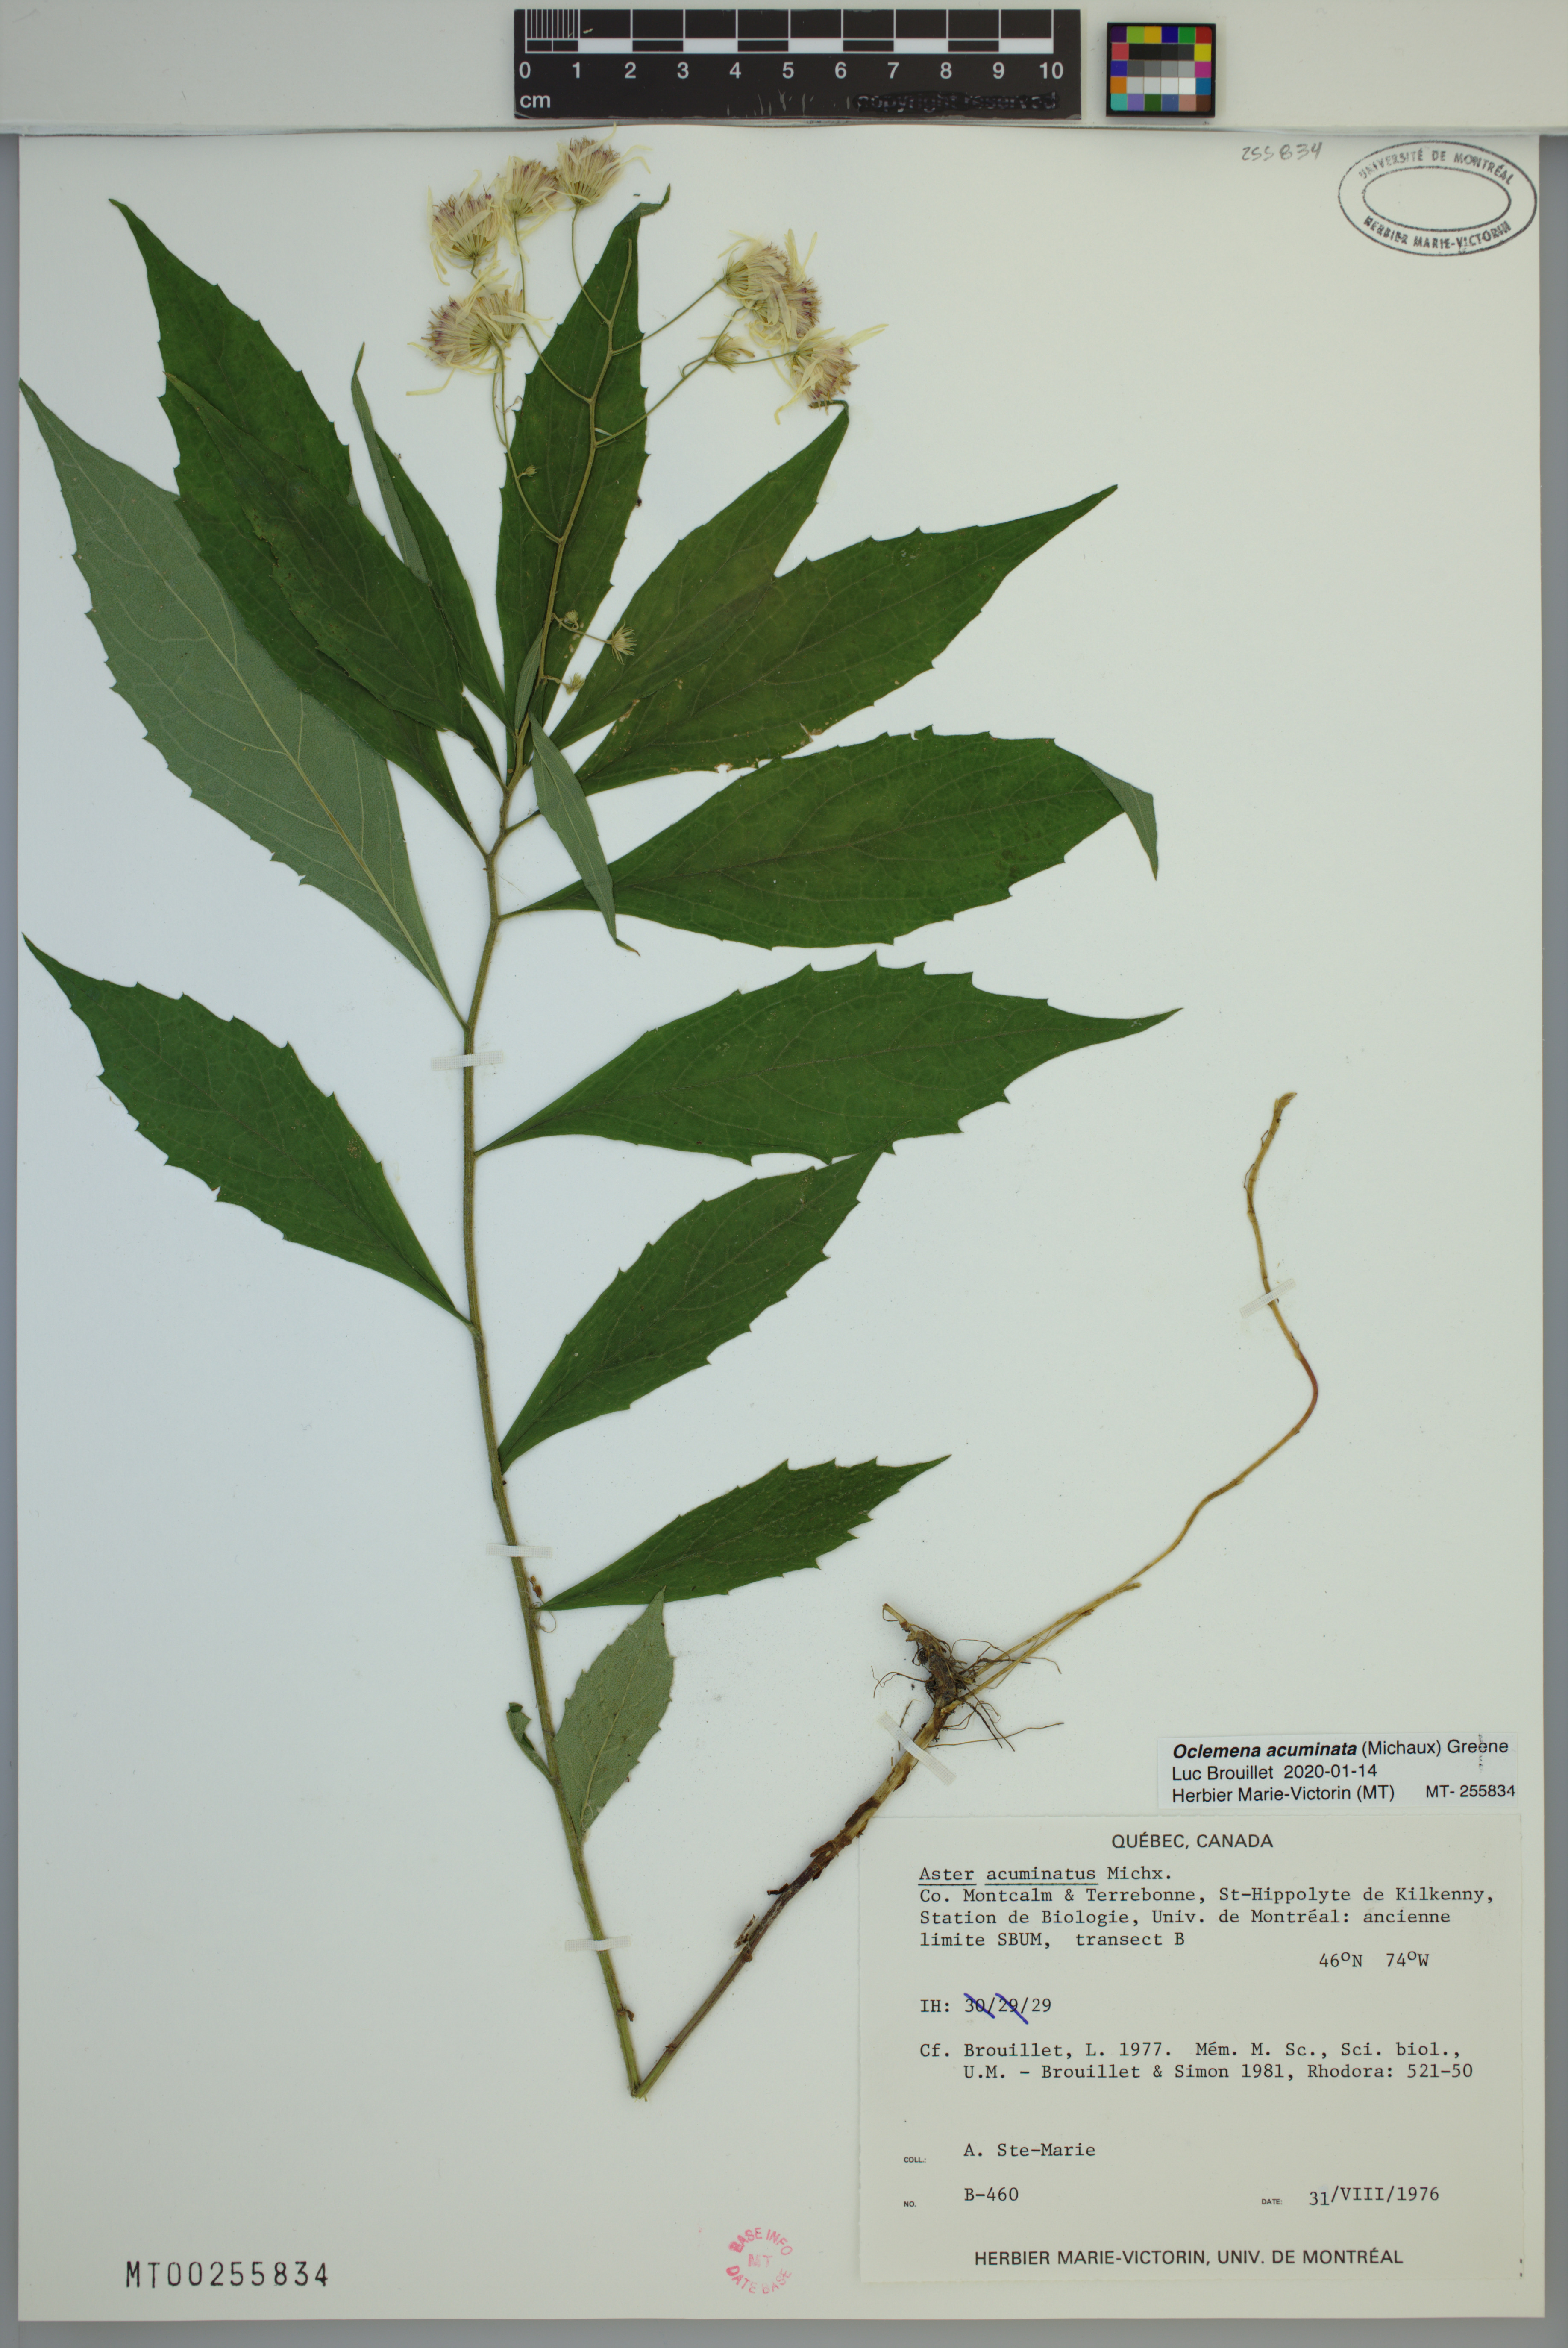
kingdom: Plantae
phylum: Tracheophyta
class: Magnoliopsida
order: Asterales
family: Asteraceae
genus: Oclemena
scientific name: Oclemena acuminata
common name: Mountain aster
